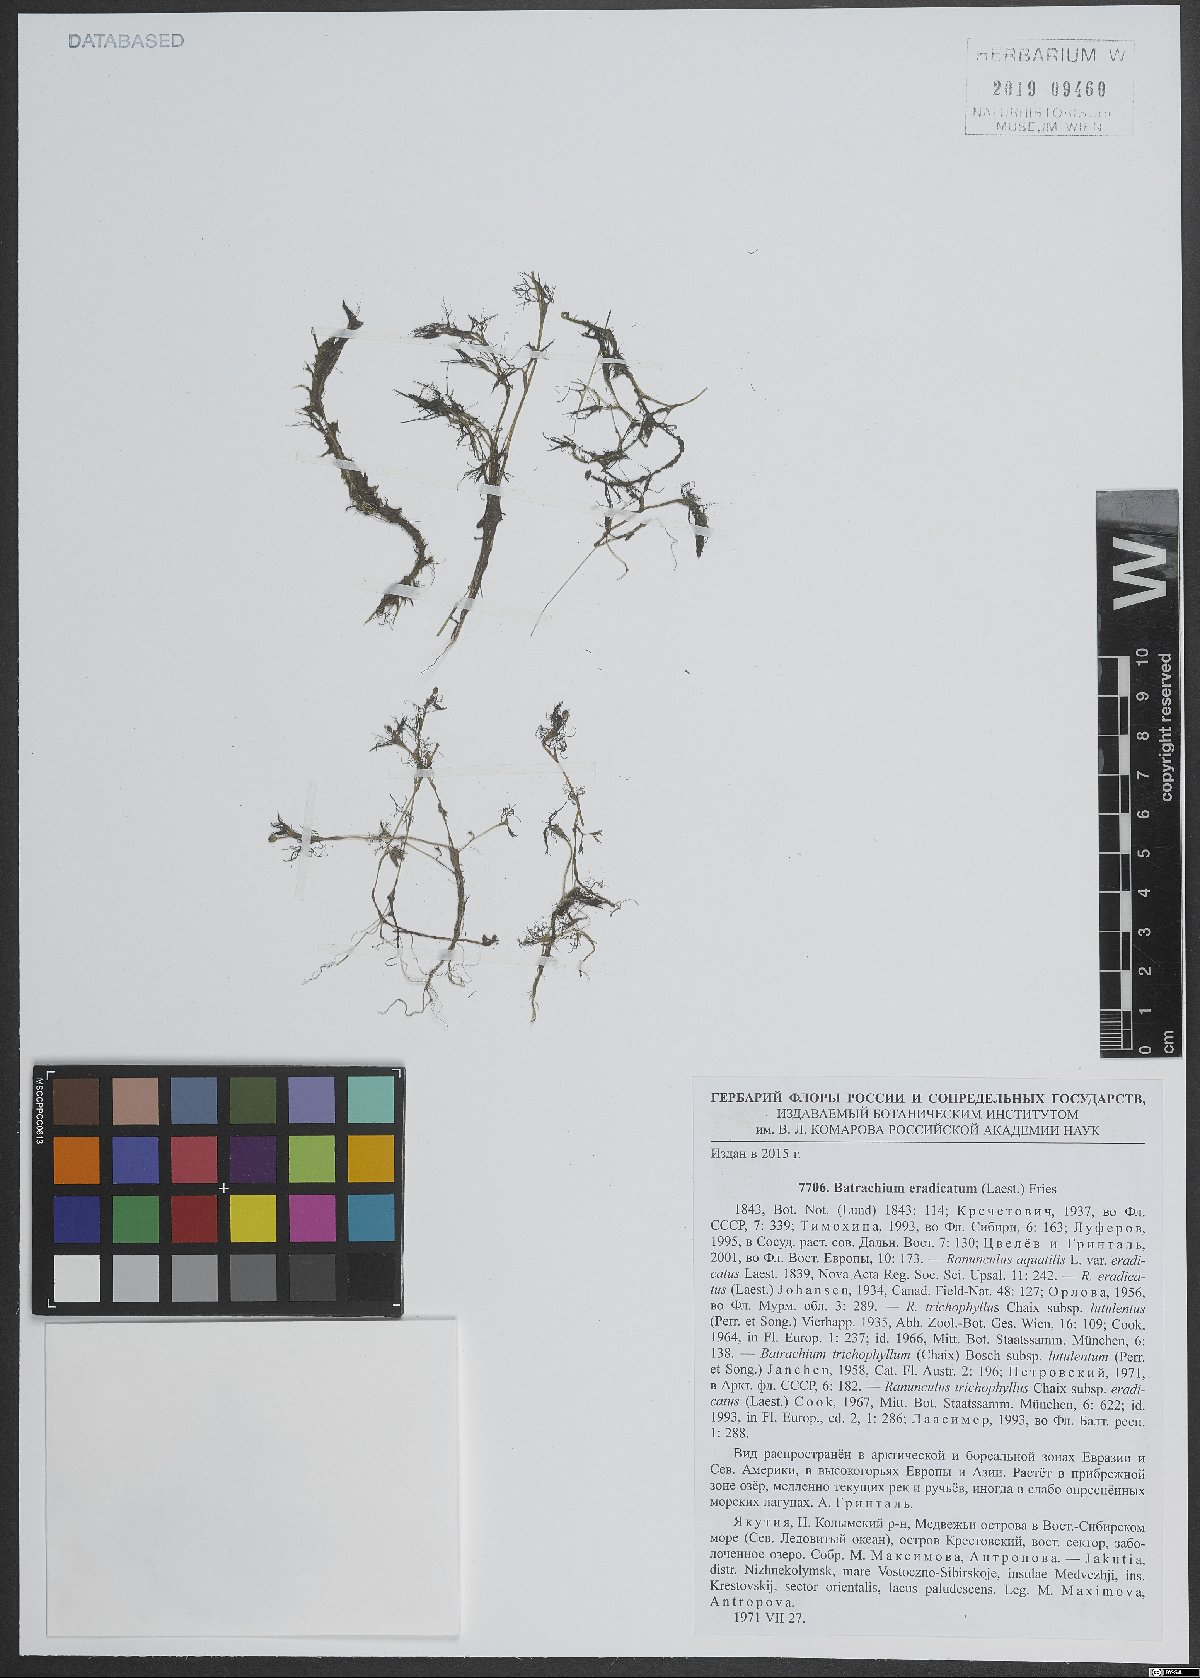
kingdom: Plantae
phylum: Tracheophyta
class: Magnoliopsida
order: Ranunculales
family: Ranunculaceae
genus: Ranunculus
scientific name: Ranunculus confervoides
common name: Delicate buttercup
